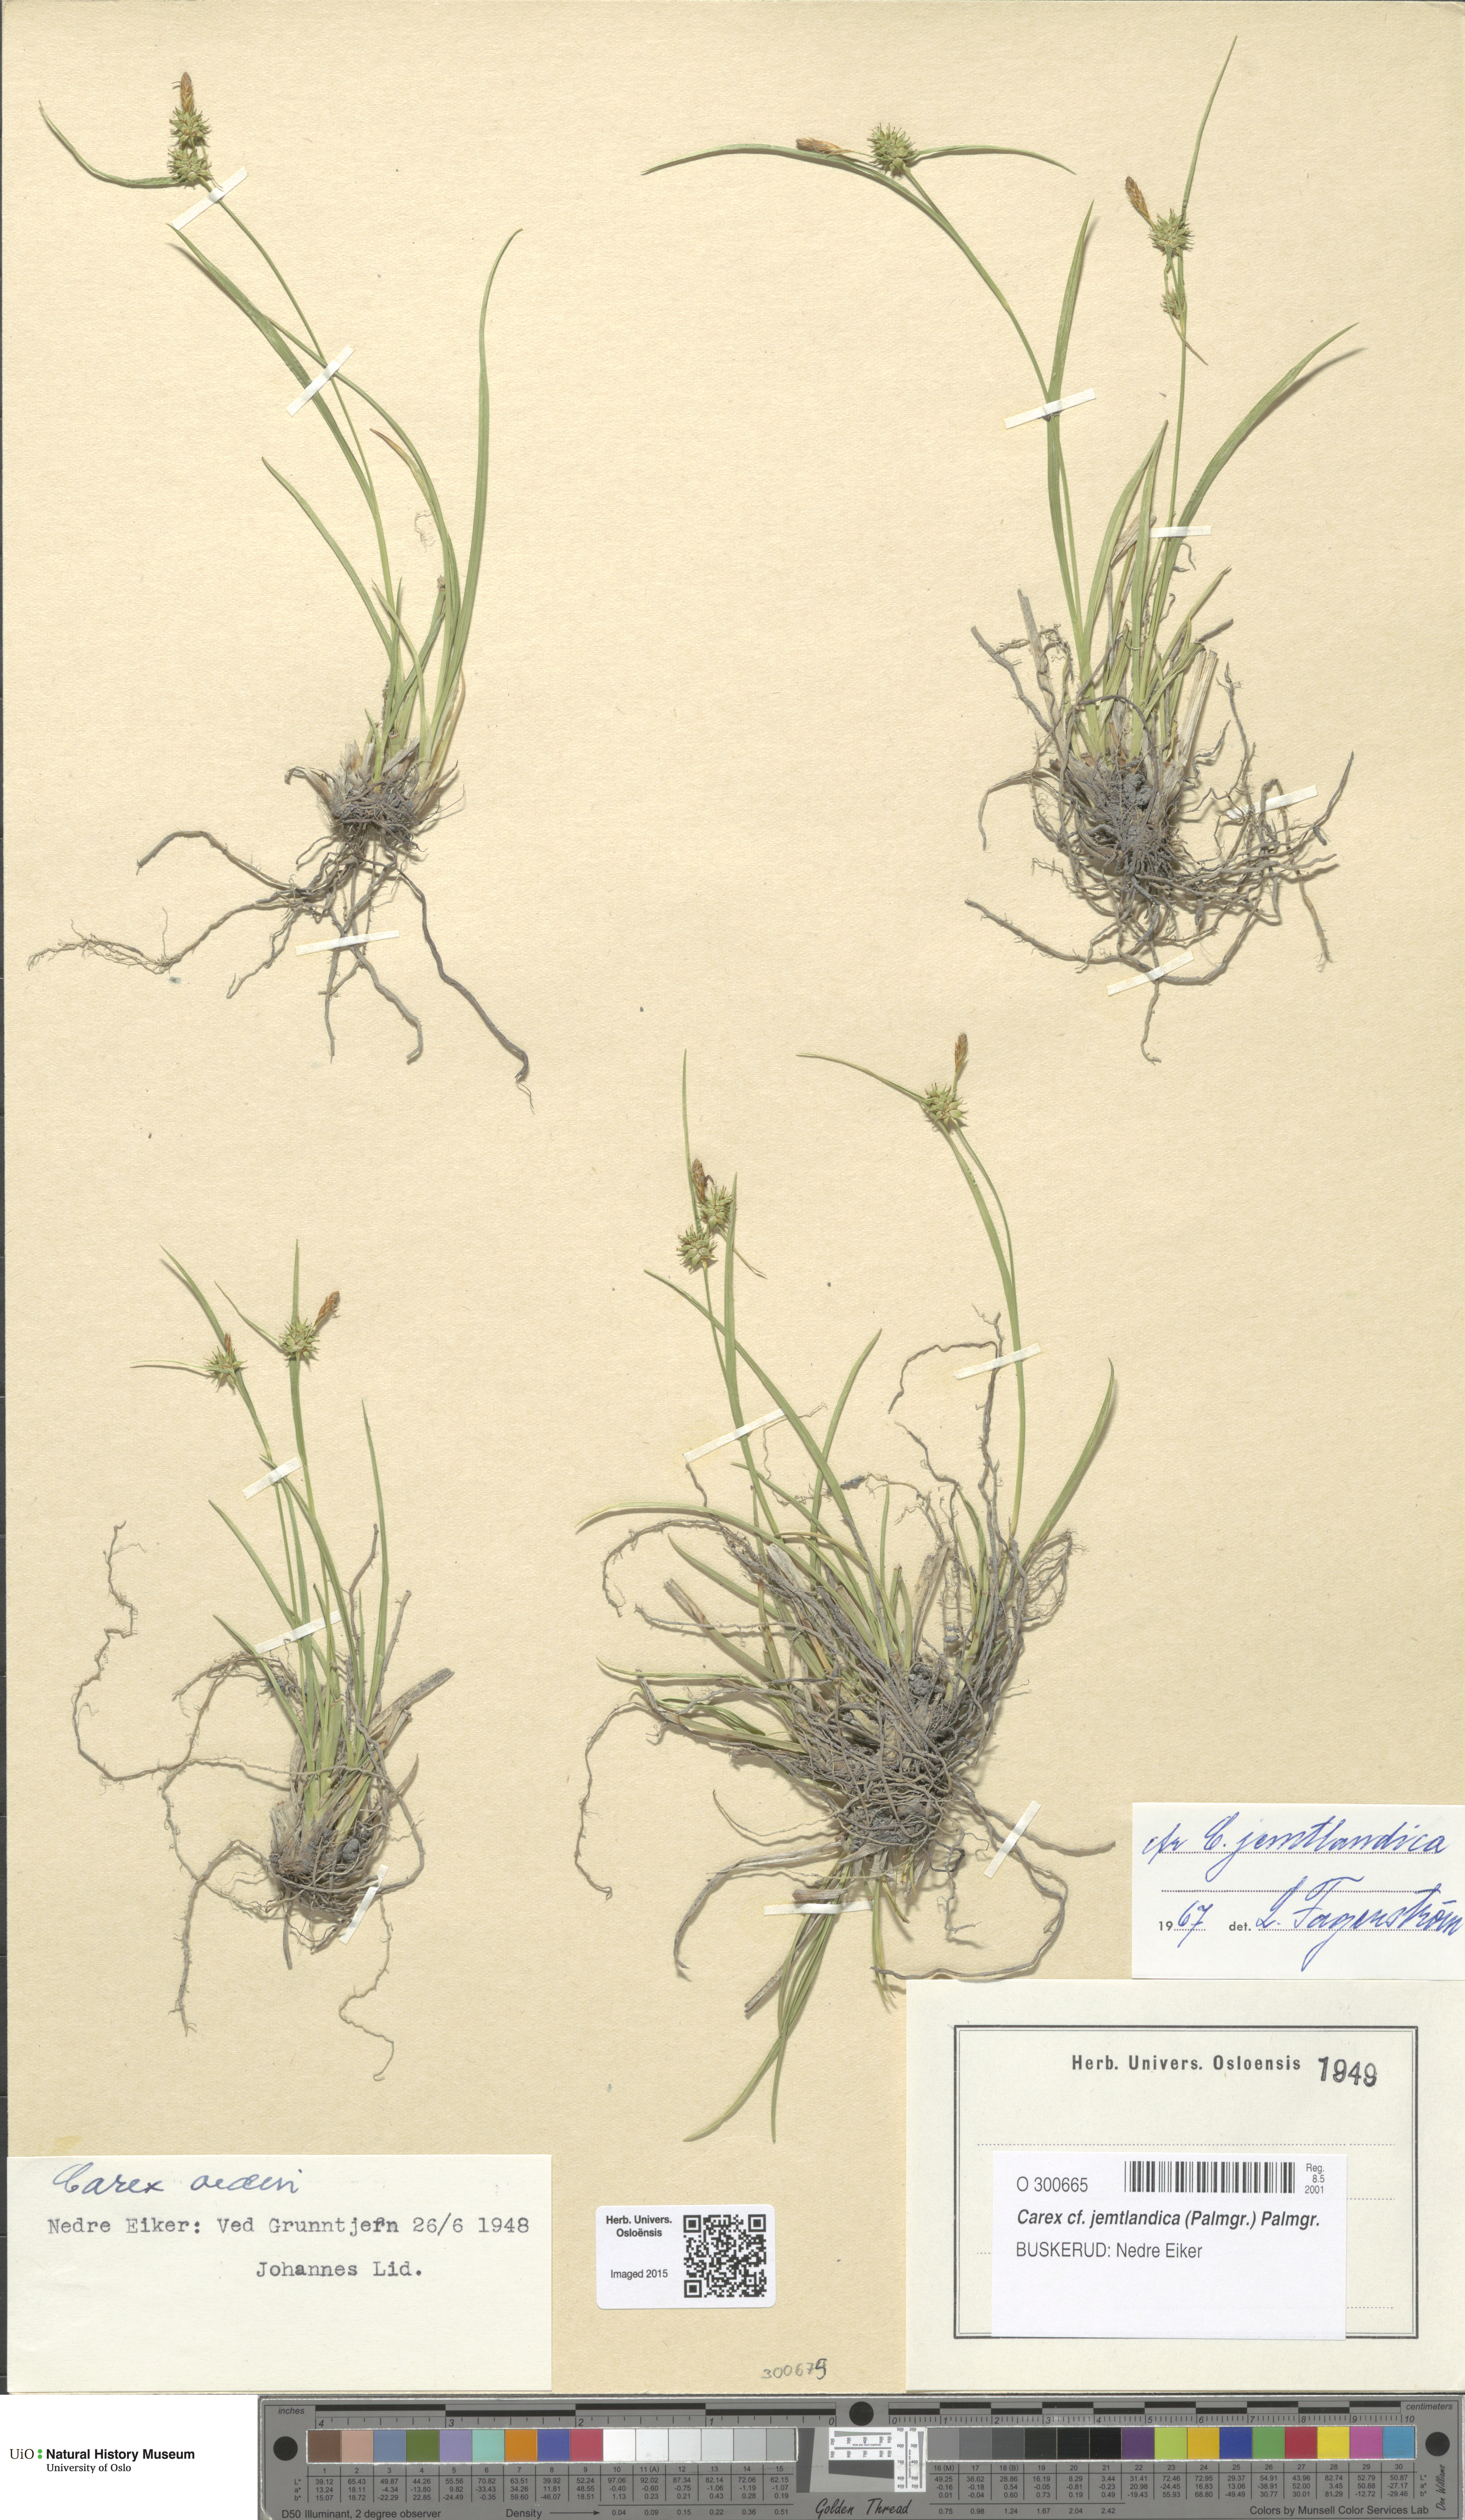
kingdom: Plantae
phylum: Tracheophyta
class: Liliopsida
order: Poales
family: Cyperaceae
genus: Carex
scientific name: Carex lepidocarpa
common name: Long-stalked yellow-sedge
